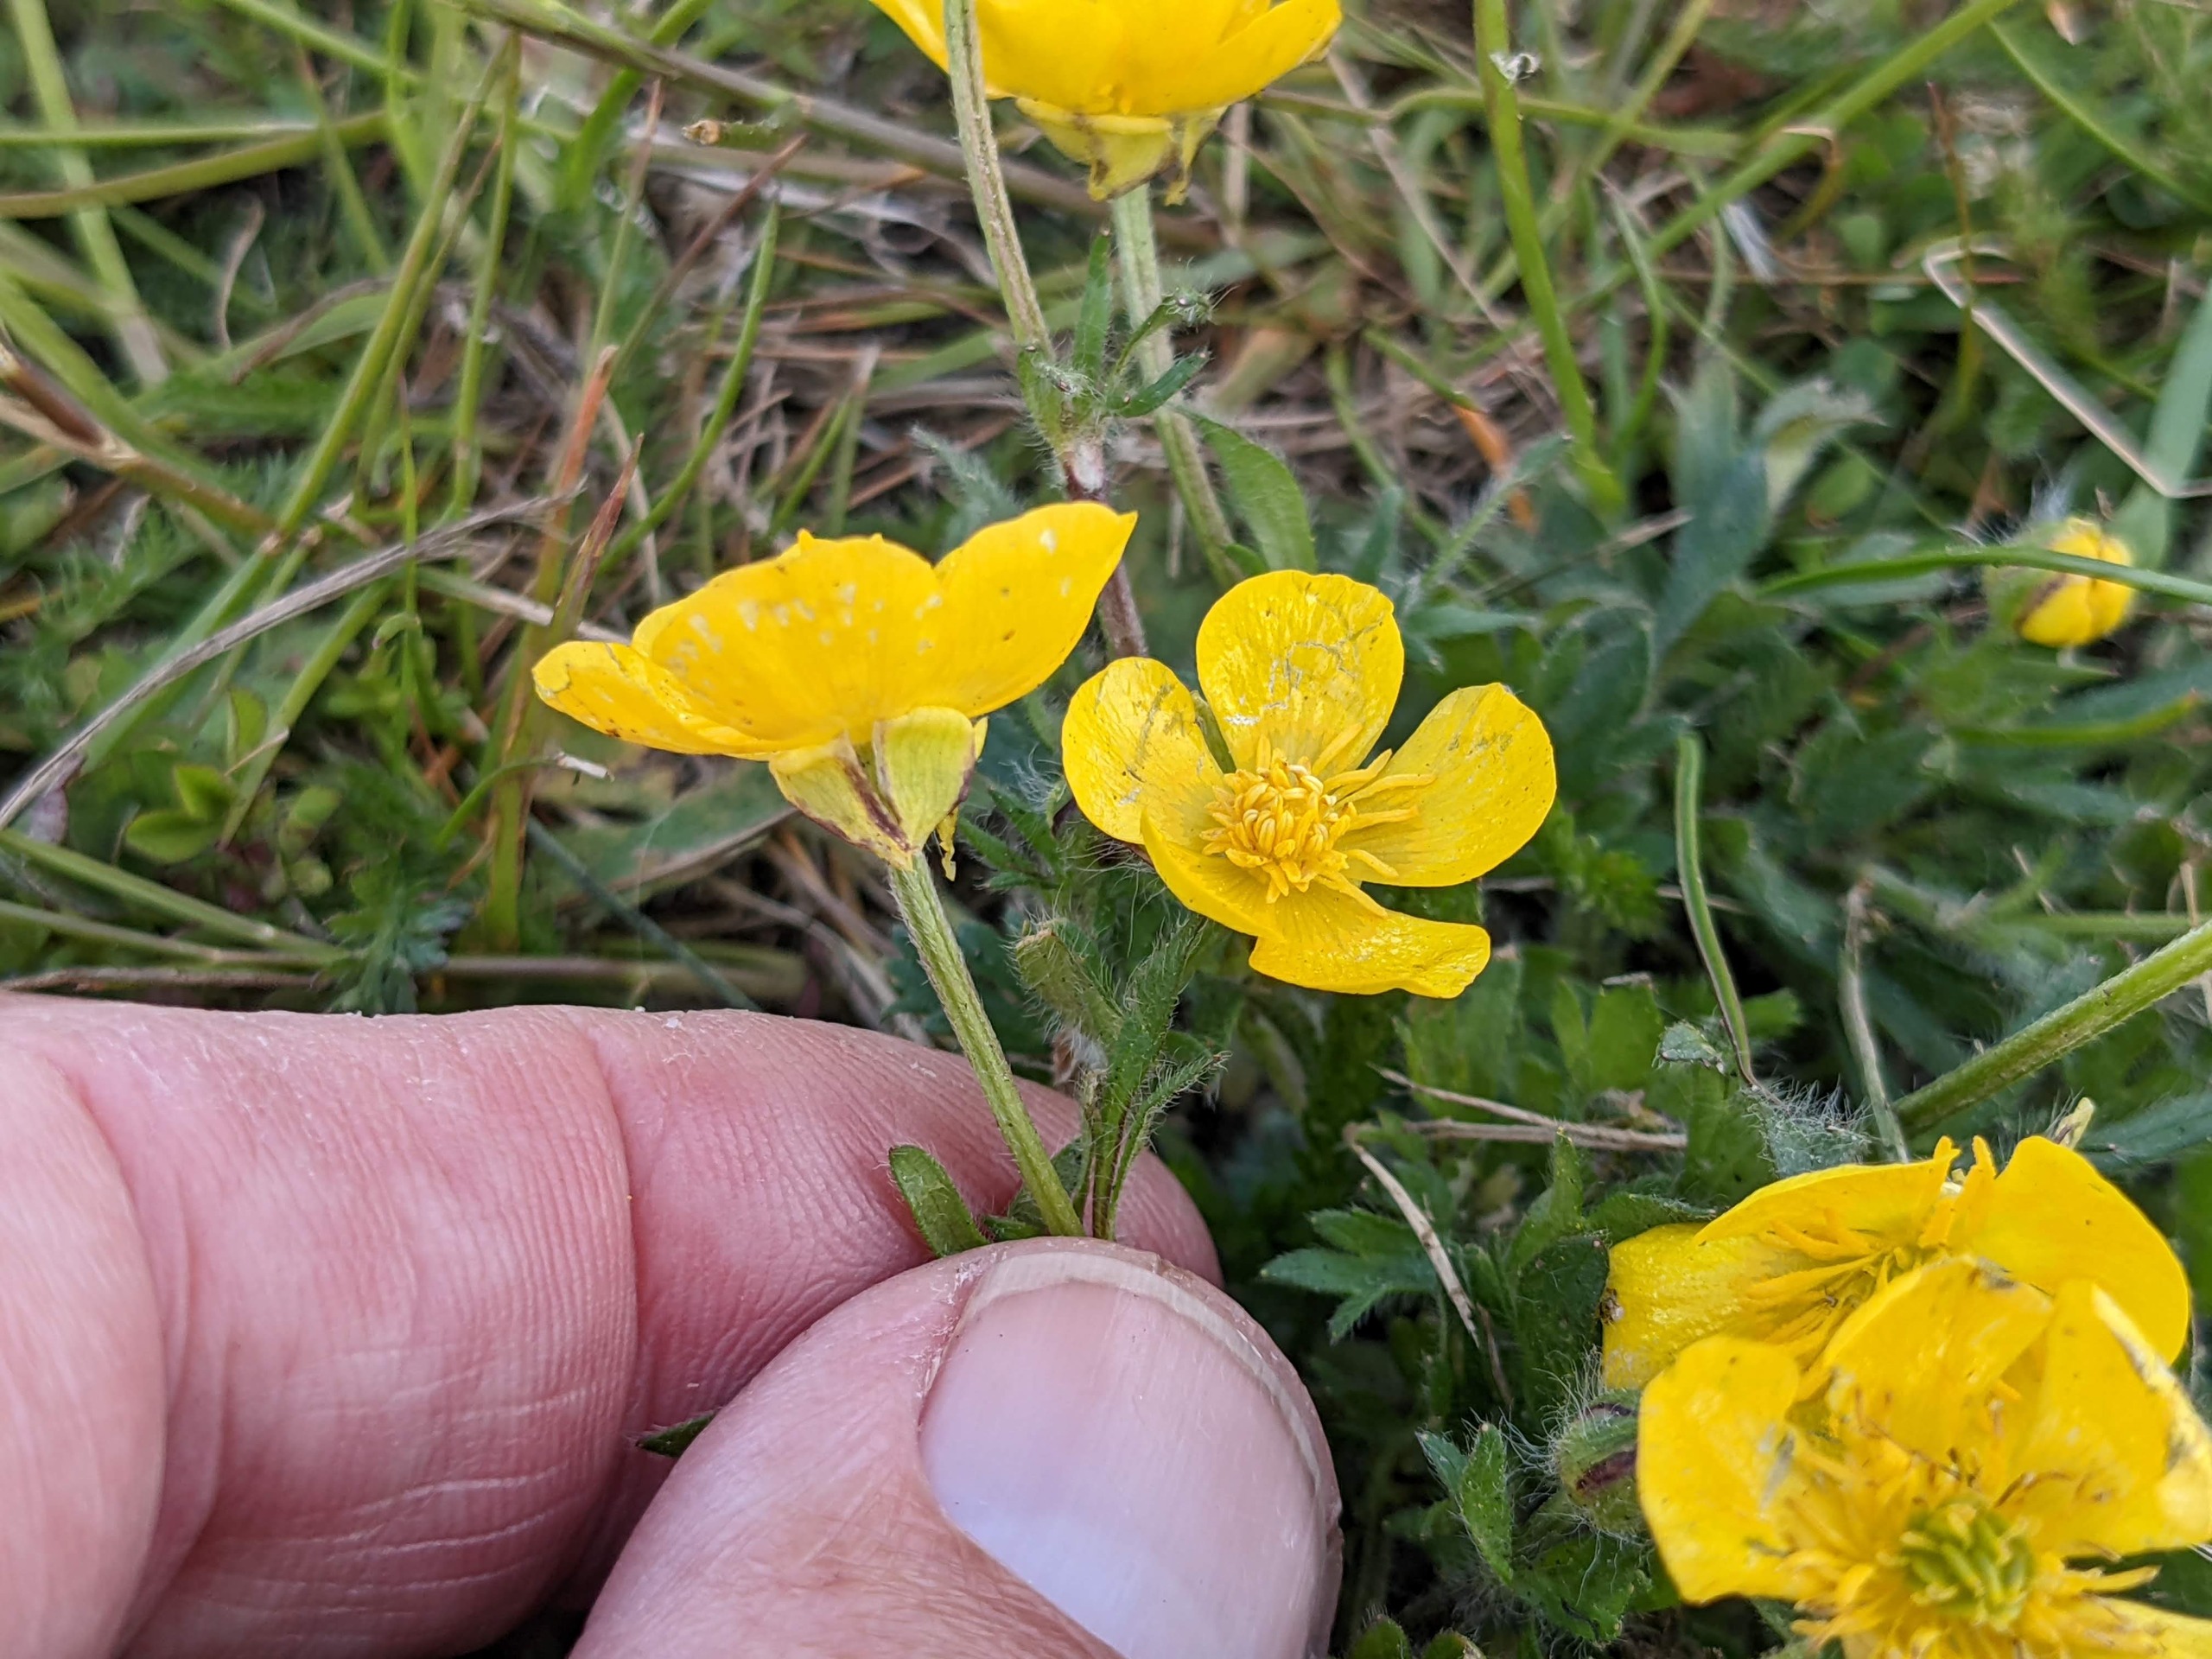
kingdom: Plantae
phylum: Tracheophyta
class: Magnoliopsida
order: Ranunculales
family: Ranunculaceae
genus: Ranunculus
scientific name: Ranunculus bulbosus
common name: Knold-ranunkel
